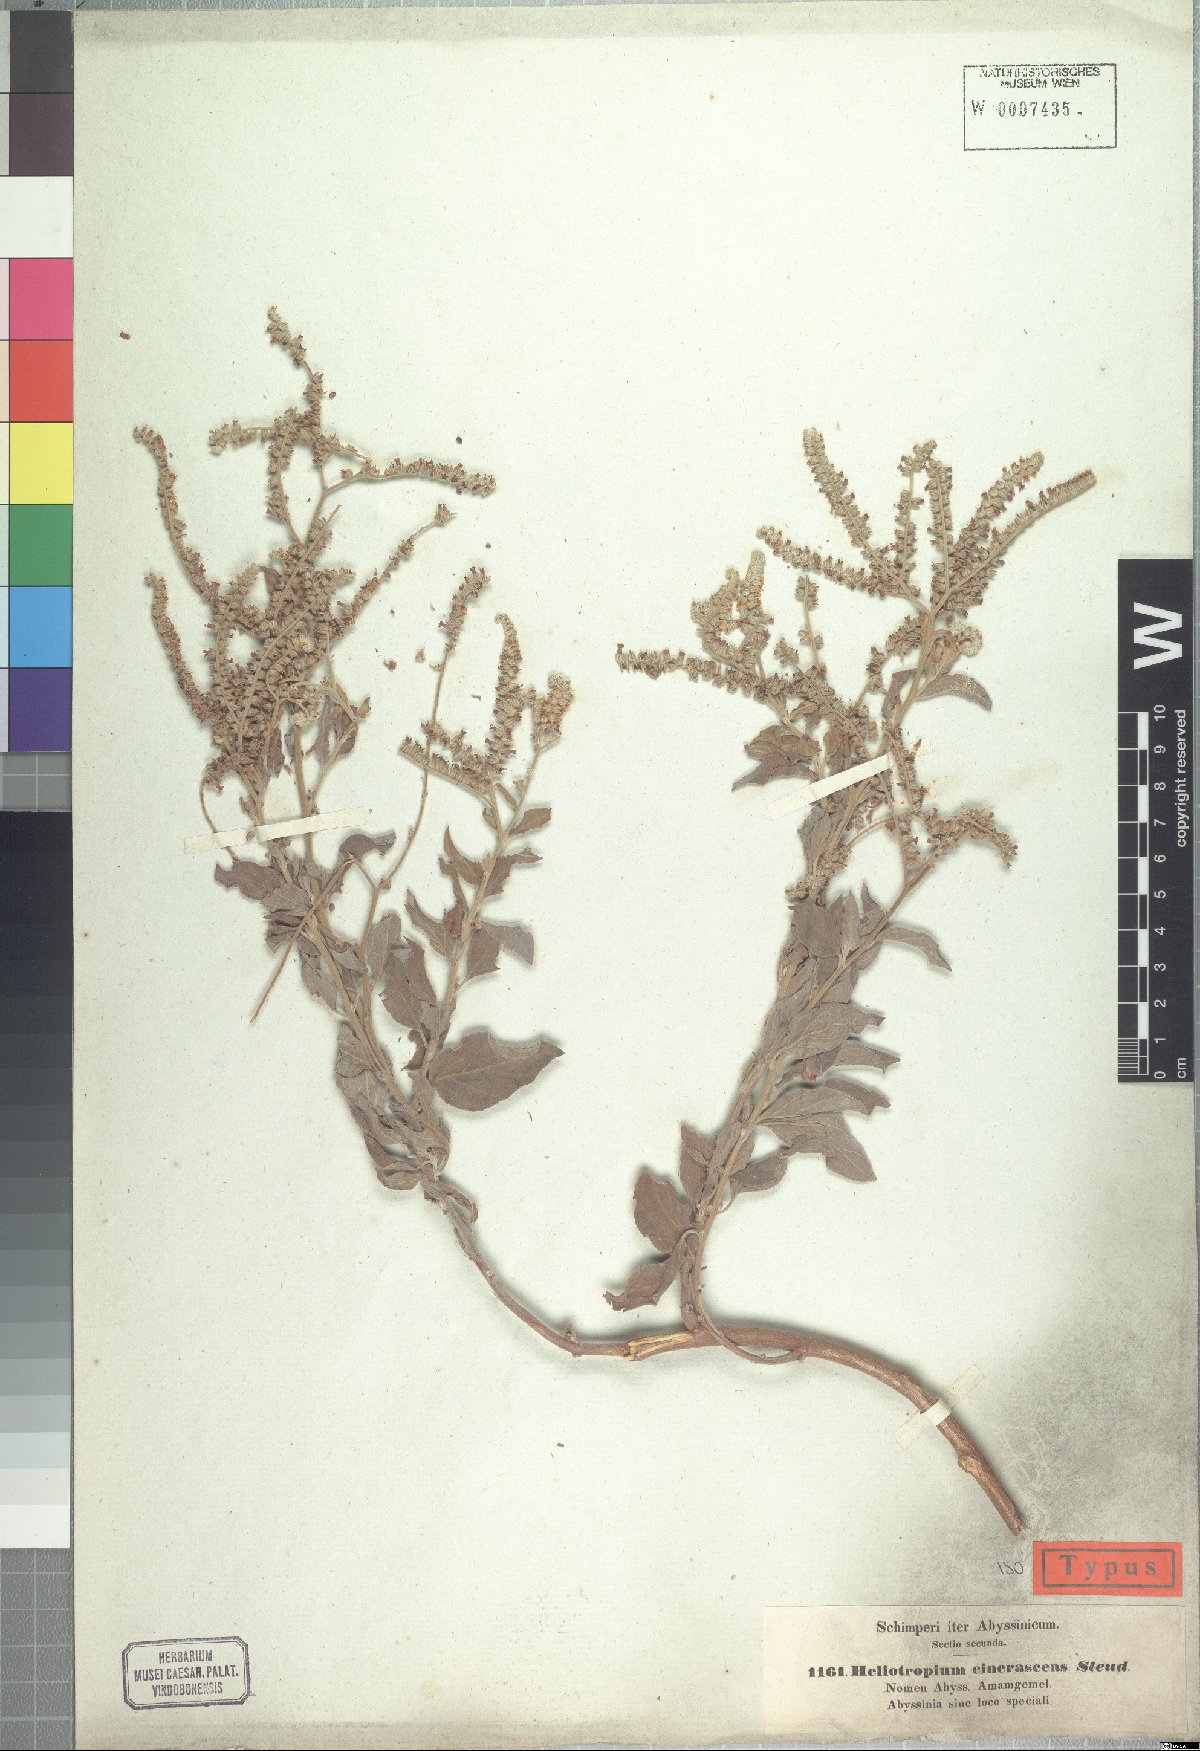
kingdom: Plantae
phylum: Tracheophyta
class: Magnoliopsida
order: Boraginales
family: Heliotropiaceae
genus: Heliotropium
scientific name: Heliotropium aegyptiacum
